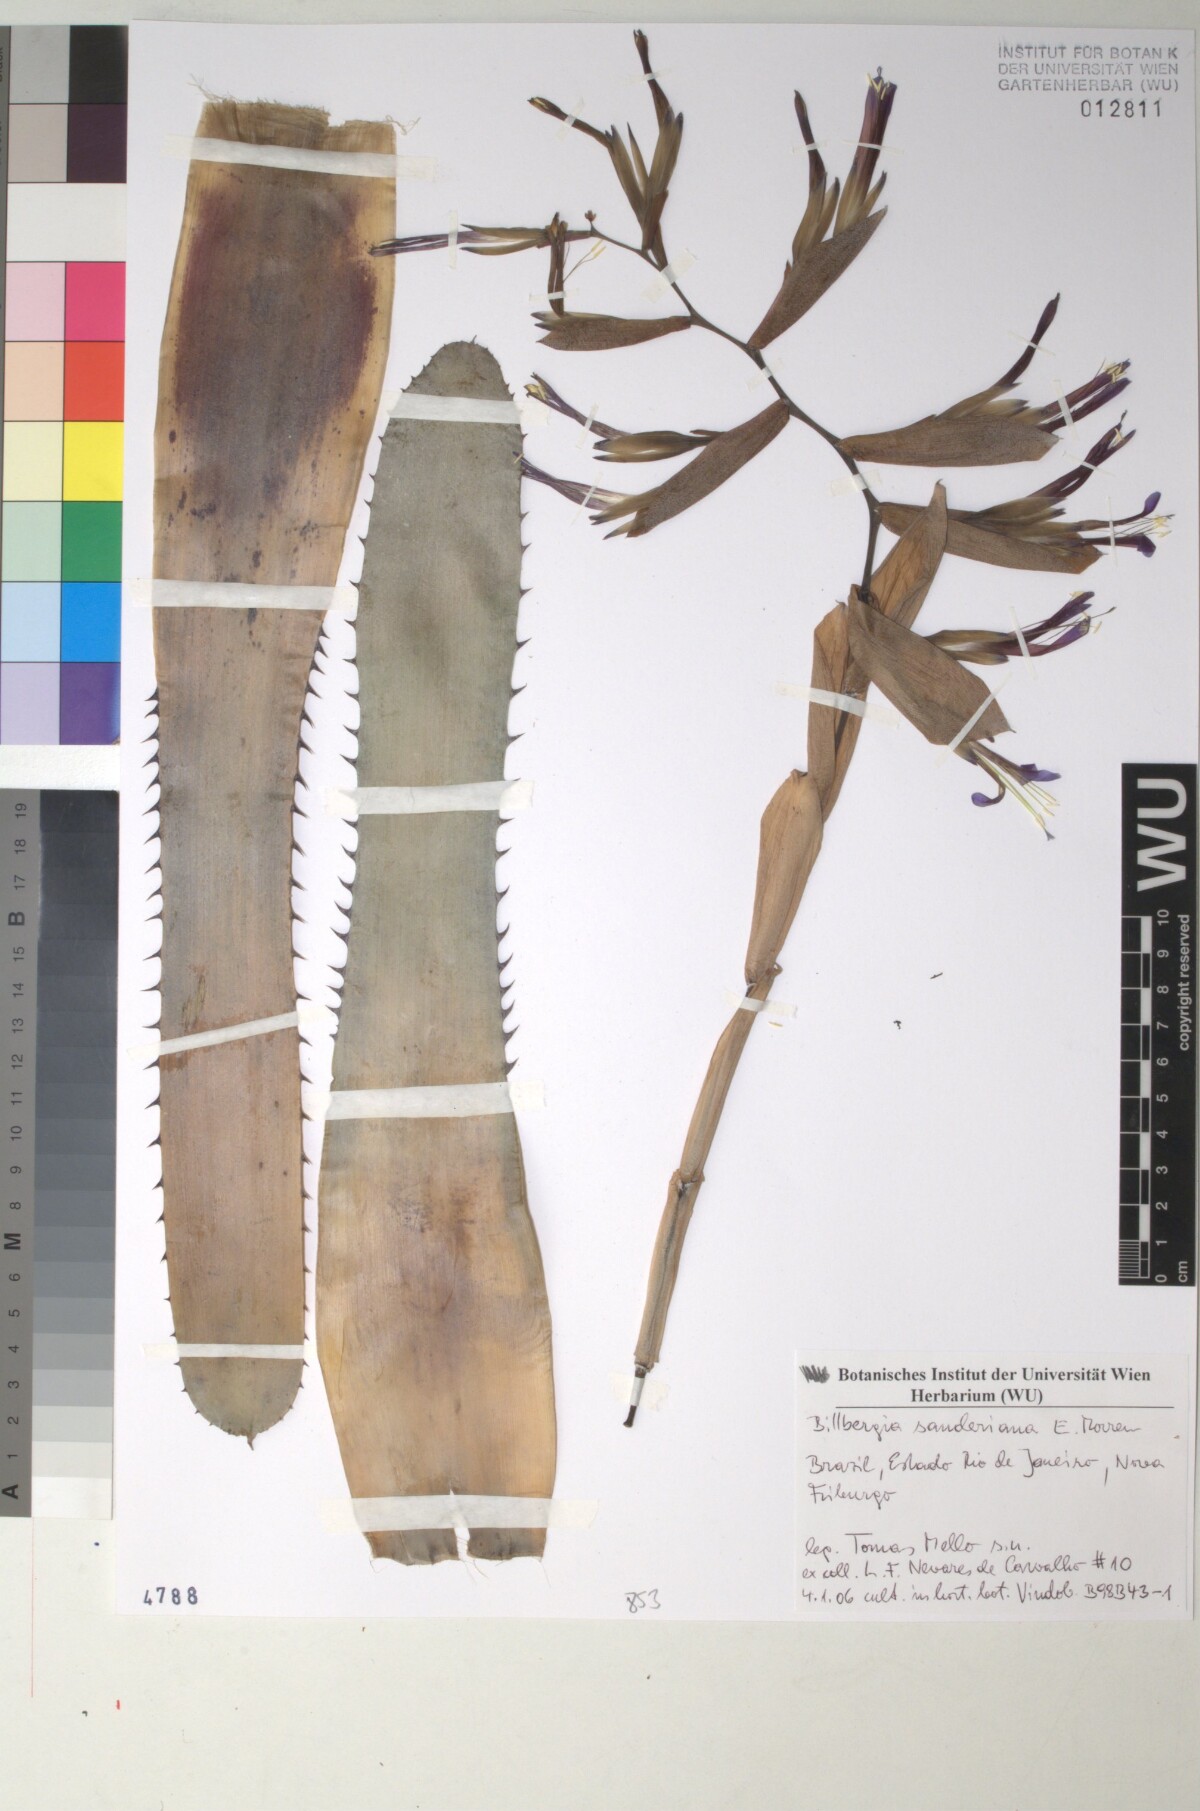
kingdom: Plantae
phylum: Tracheophyta
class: Liliopsida
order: Poales
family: Bromeliaceae
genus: Billbergia
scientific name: Billbergia sanderiana
